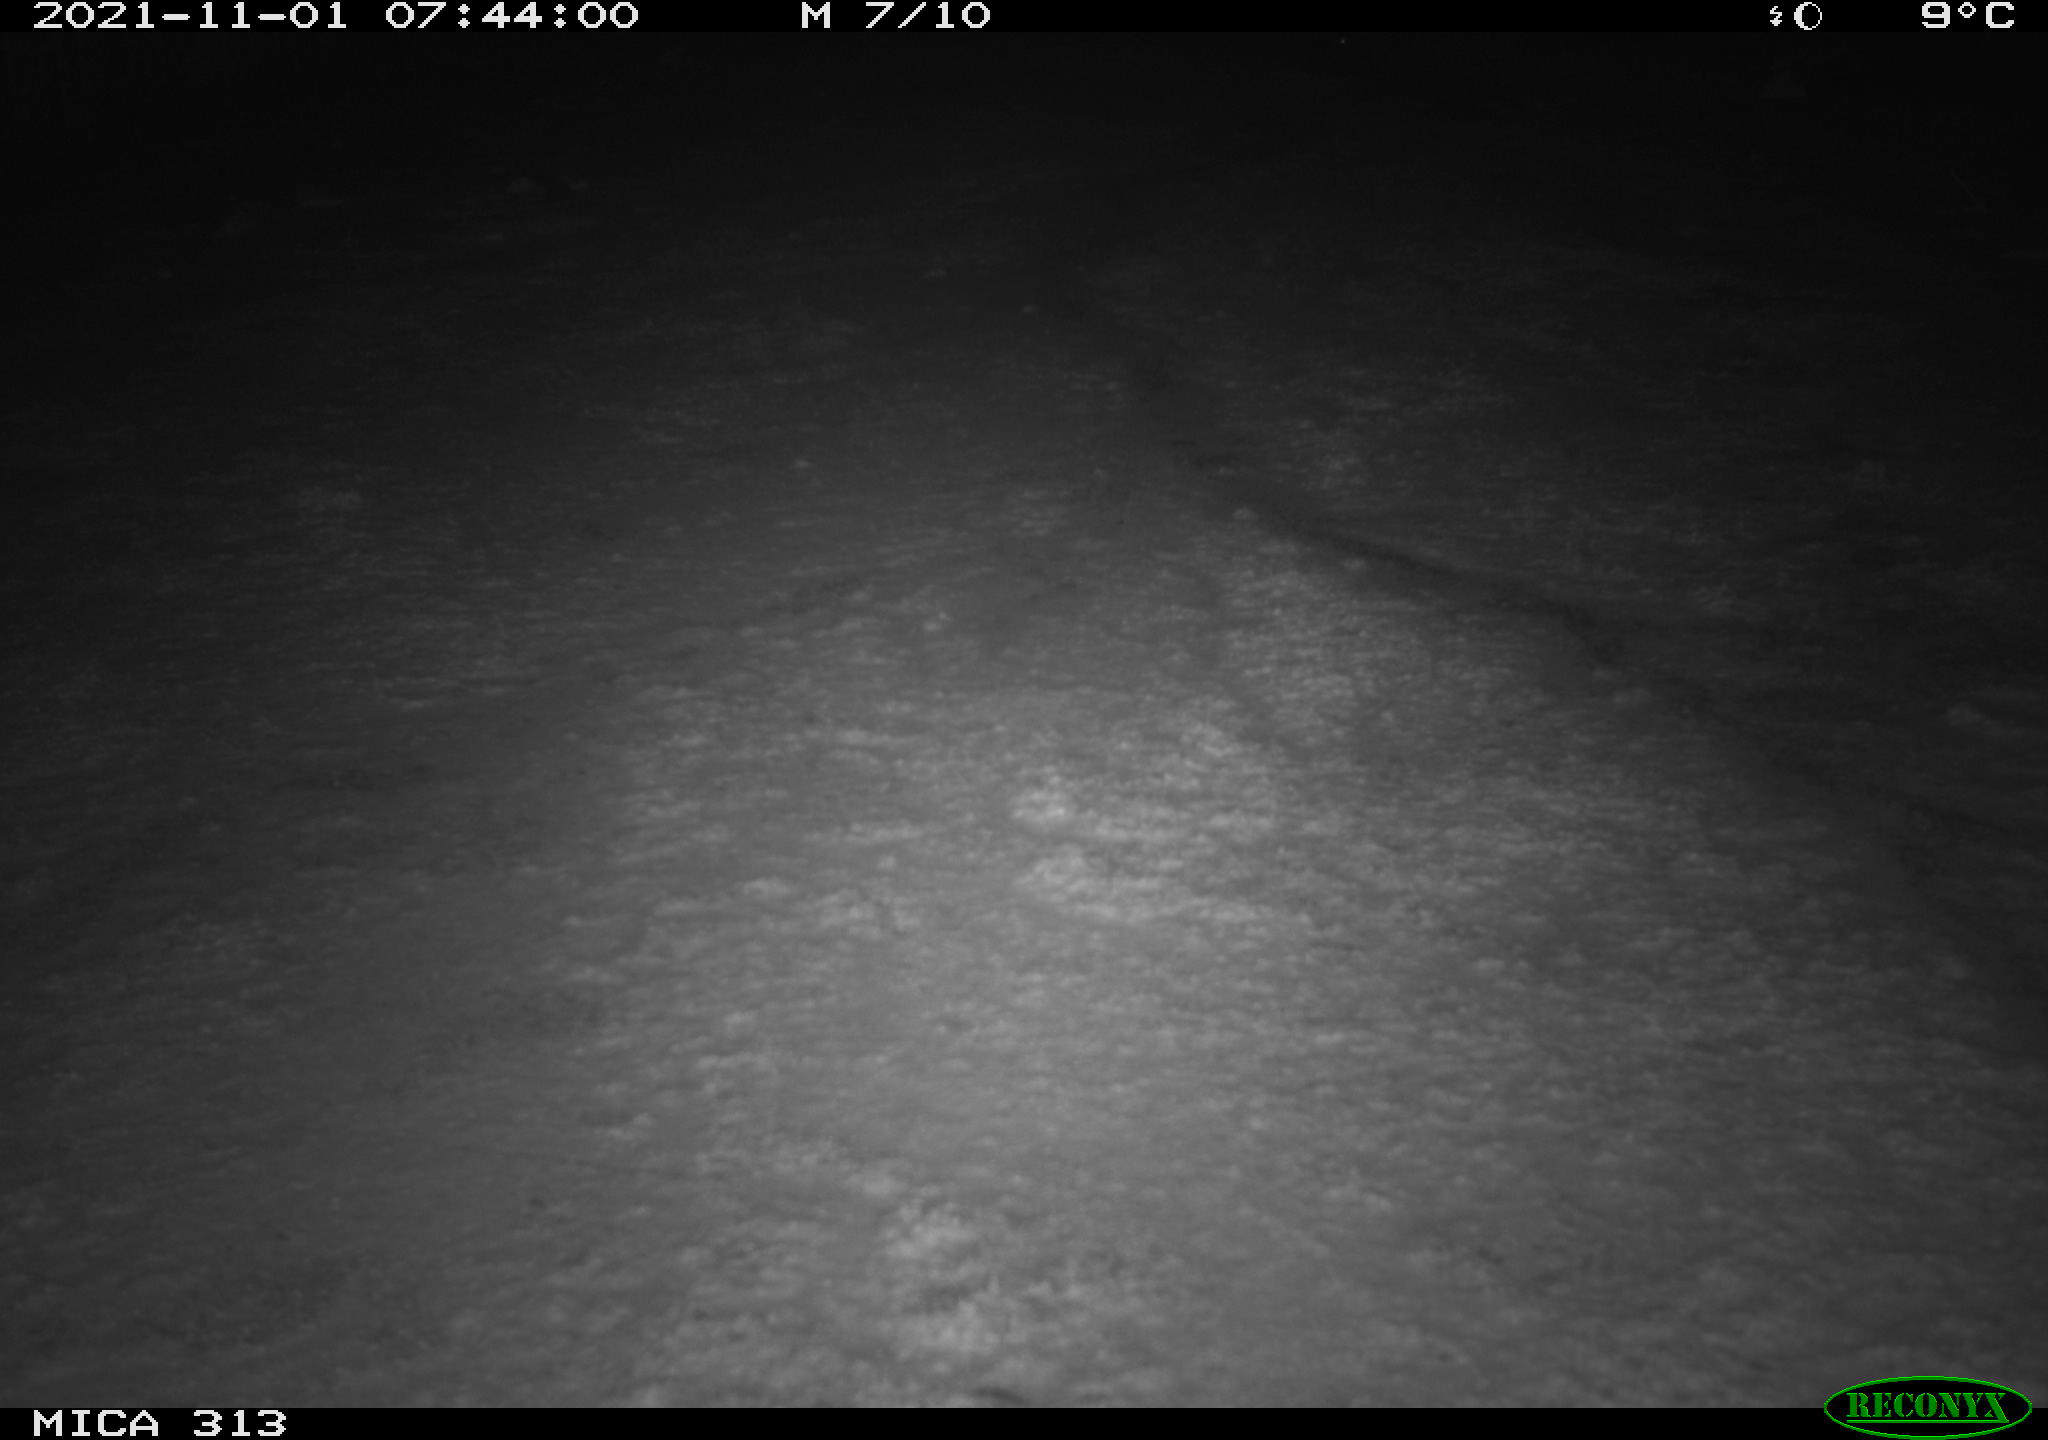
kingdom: Animalia
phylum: Chordata
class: Aves
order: Gruiformes
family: Rallidae
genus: Fulica
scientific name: Fulica atra
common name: Eurasian coot
